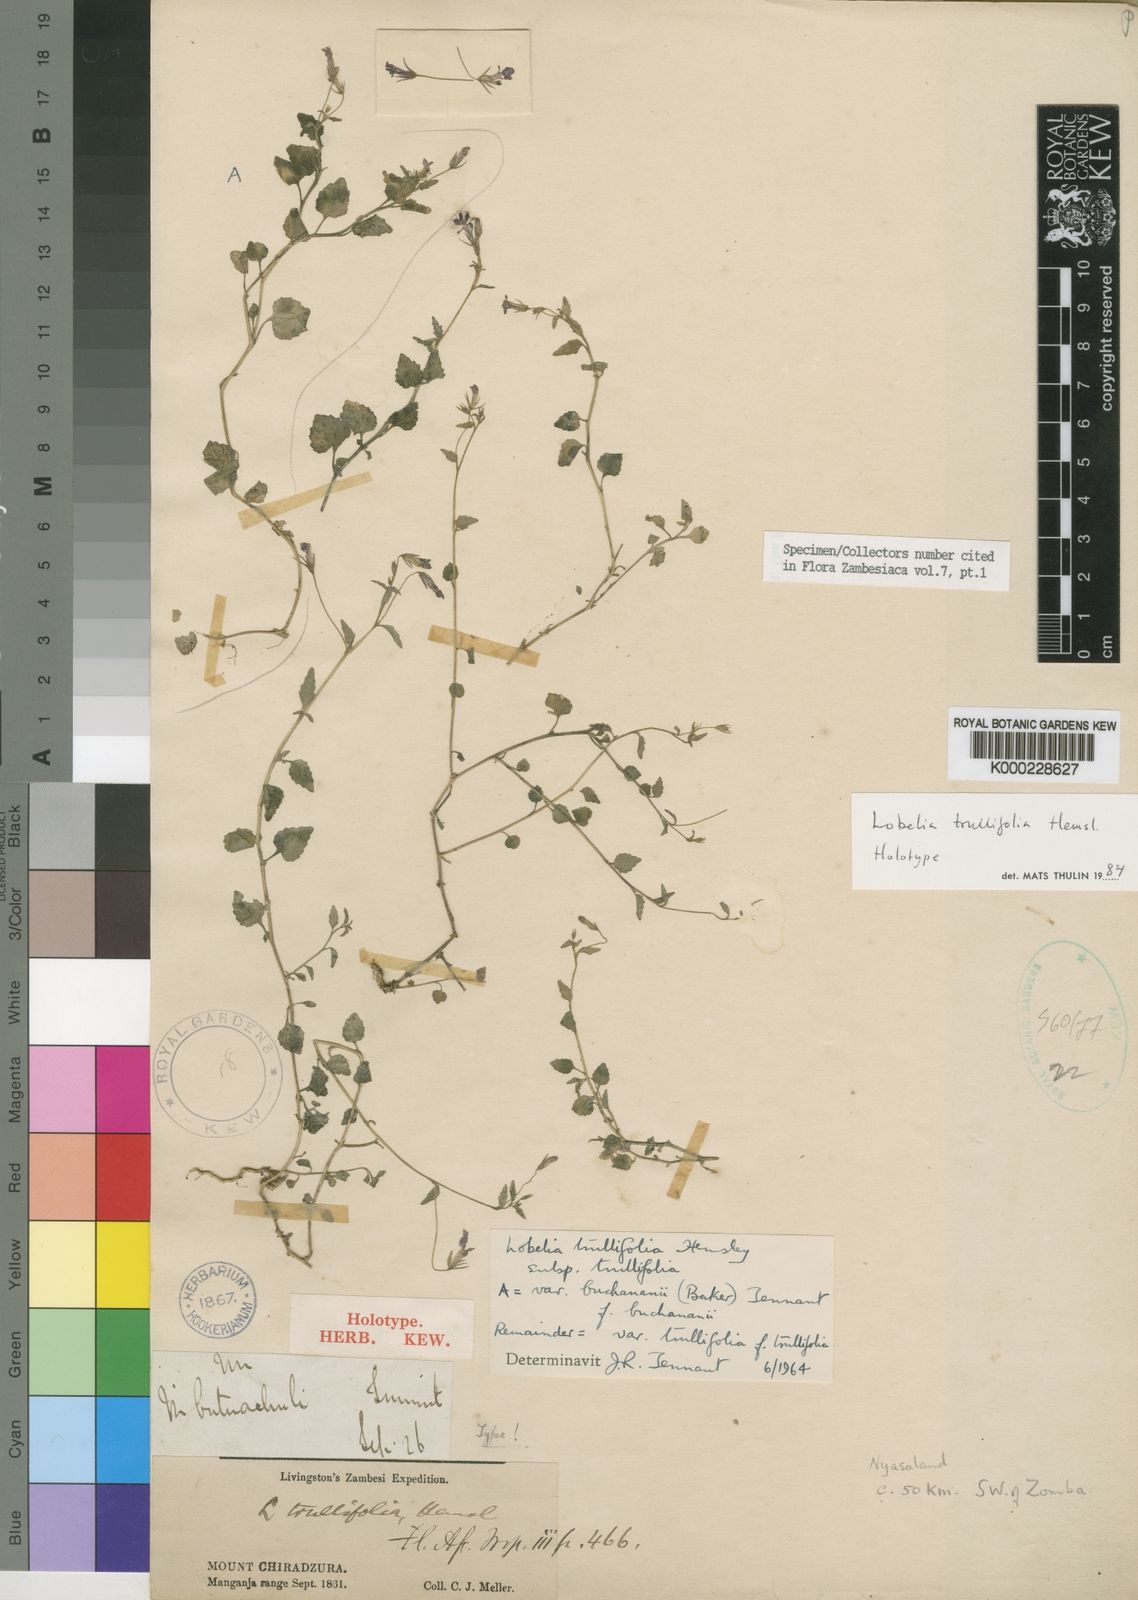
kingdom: Plantae
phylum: Tracheophyta
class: Magnoliopsida
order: Asterales
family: Campanulaceae
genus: Lobelia
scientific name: Lobelia trullifolia
